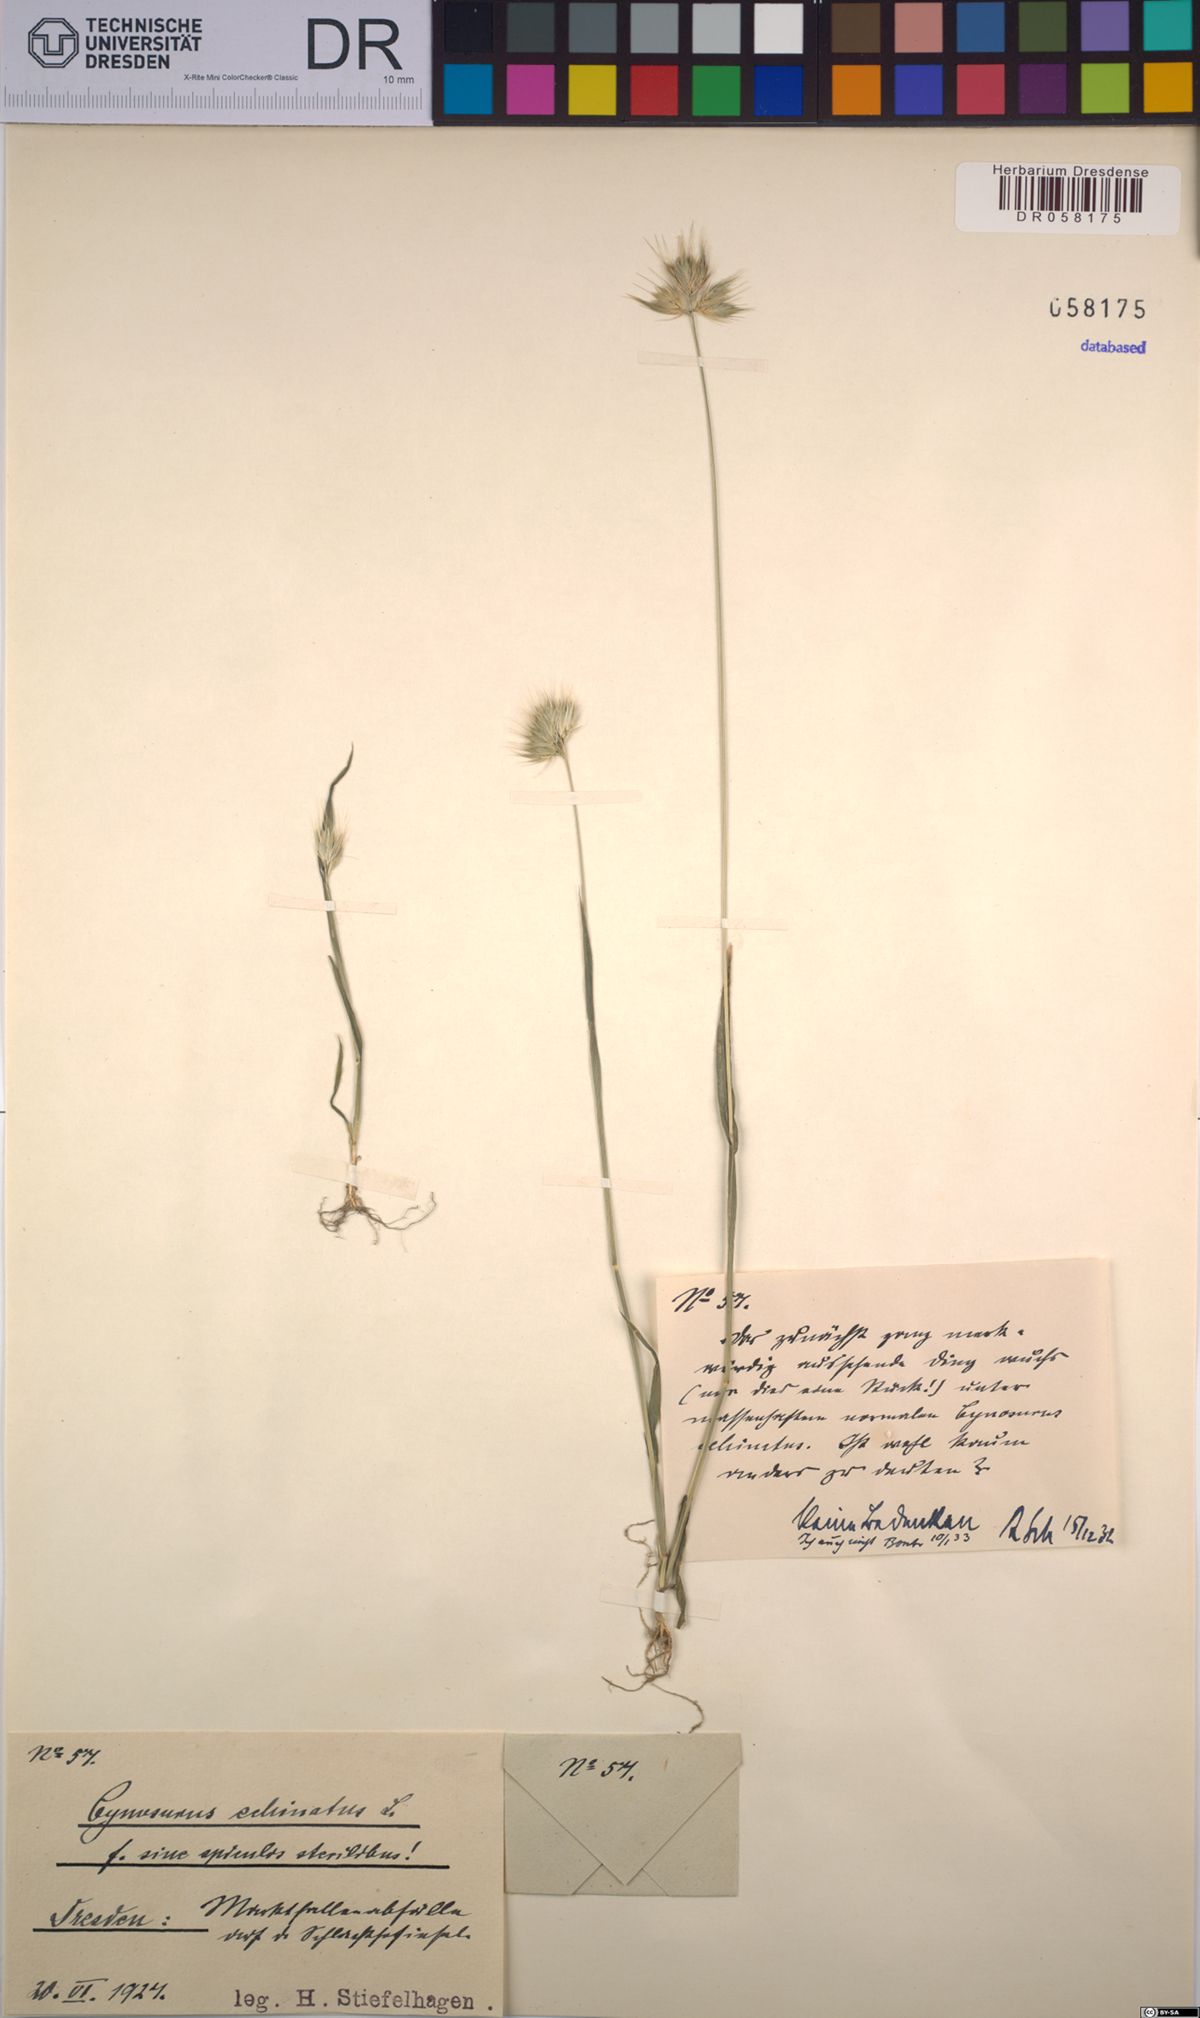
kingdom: Plantae
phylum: Tracheophyta
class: Liliopsida
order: Poales
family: Poaceae
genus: Cynosurus
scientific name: Cynosurus echinatus
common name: Rough dog's-tail
